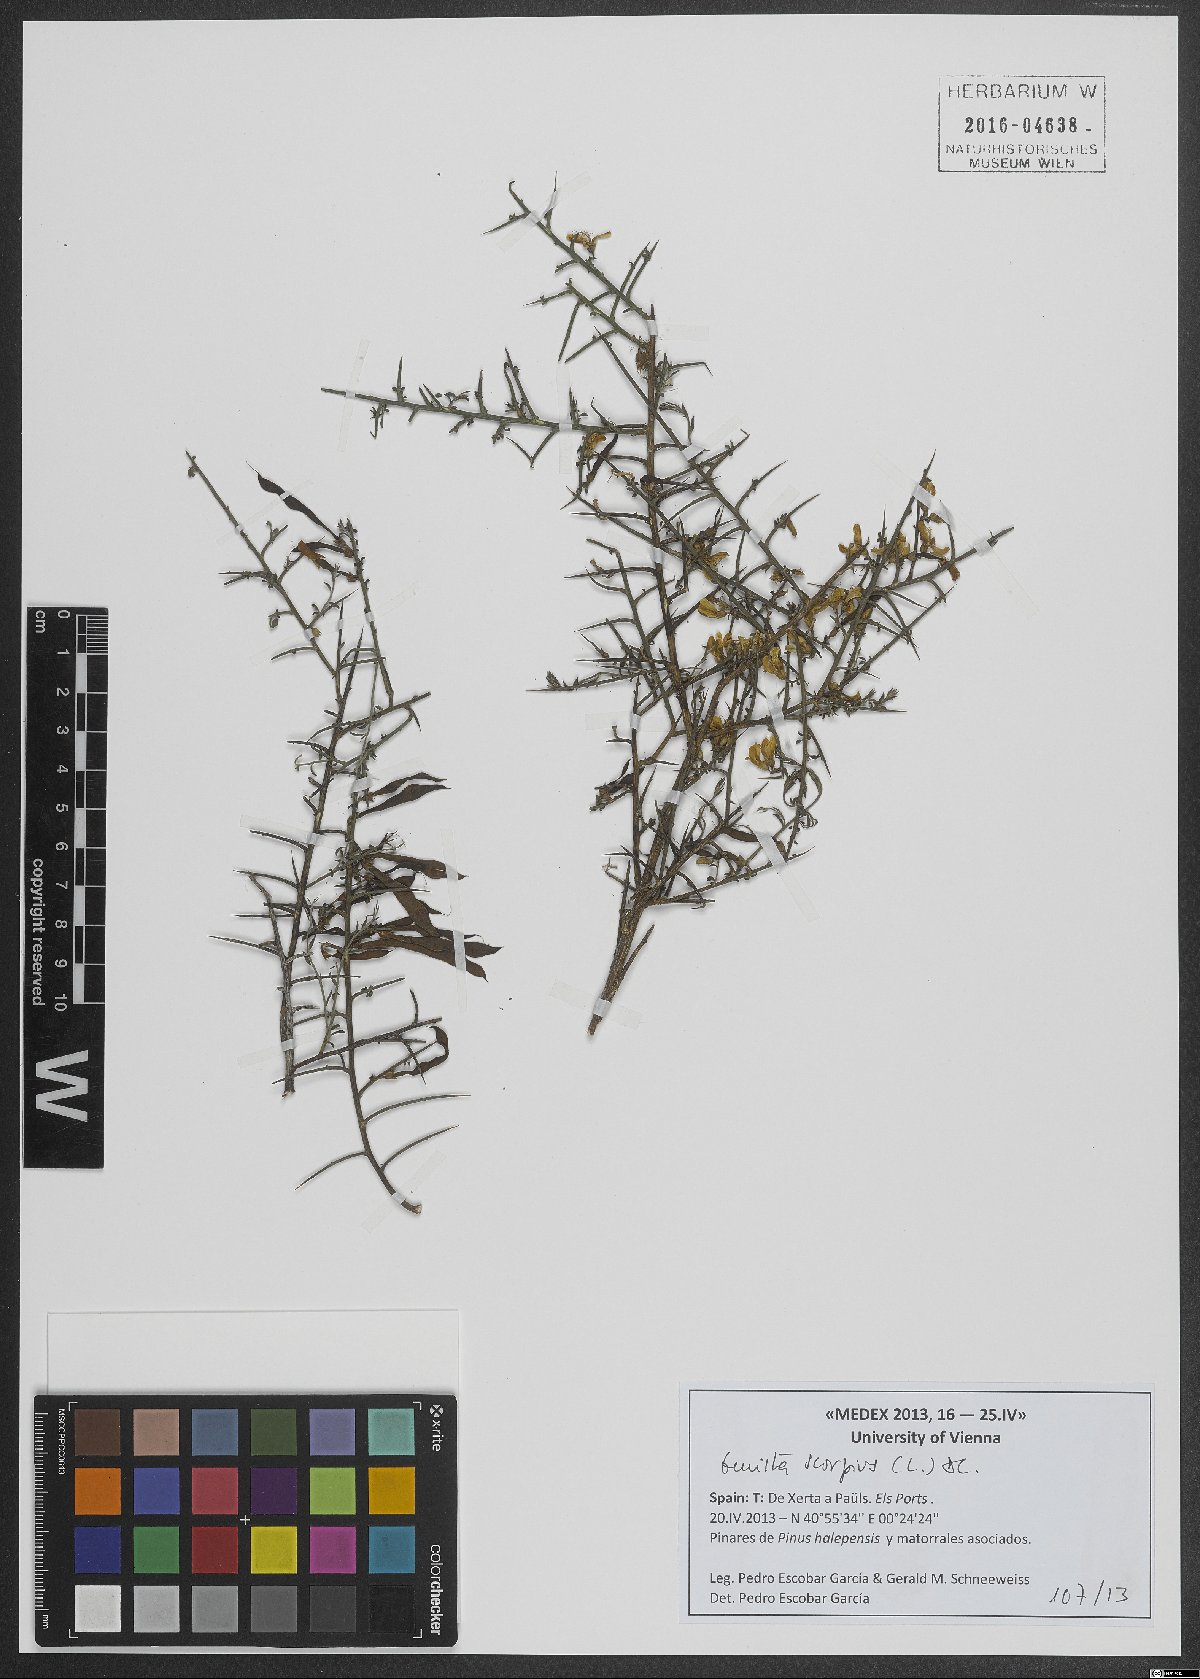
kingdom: Plantae
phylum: Tracheophyta
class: Magnoliopsida
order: Fabales
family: Fabaceae
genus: Genista
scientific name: Genista scorpius
